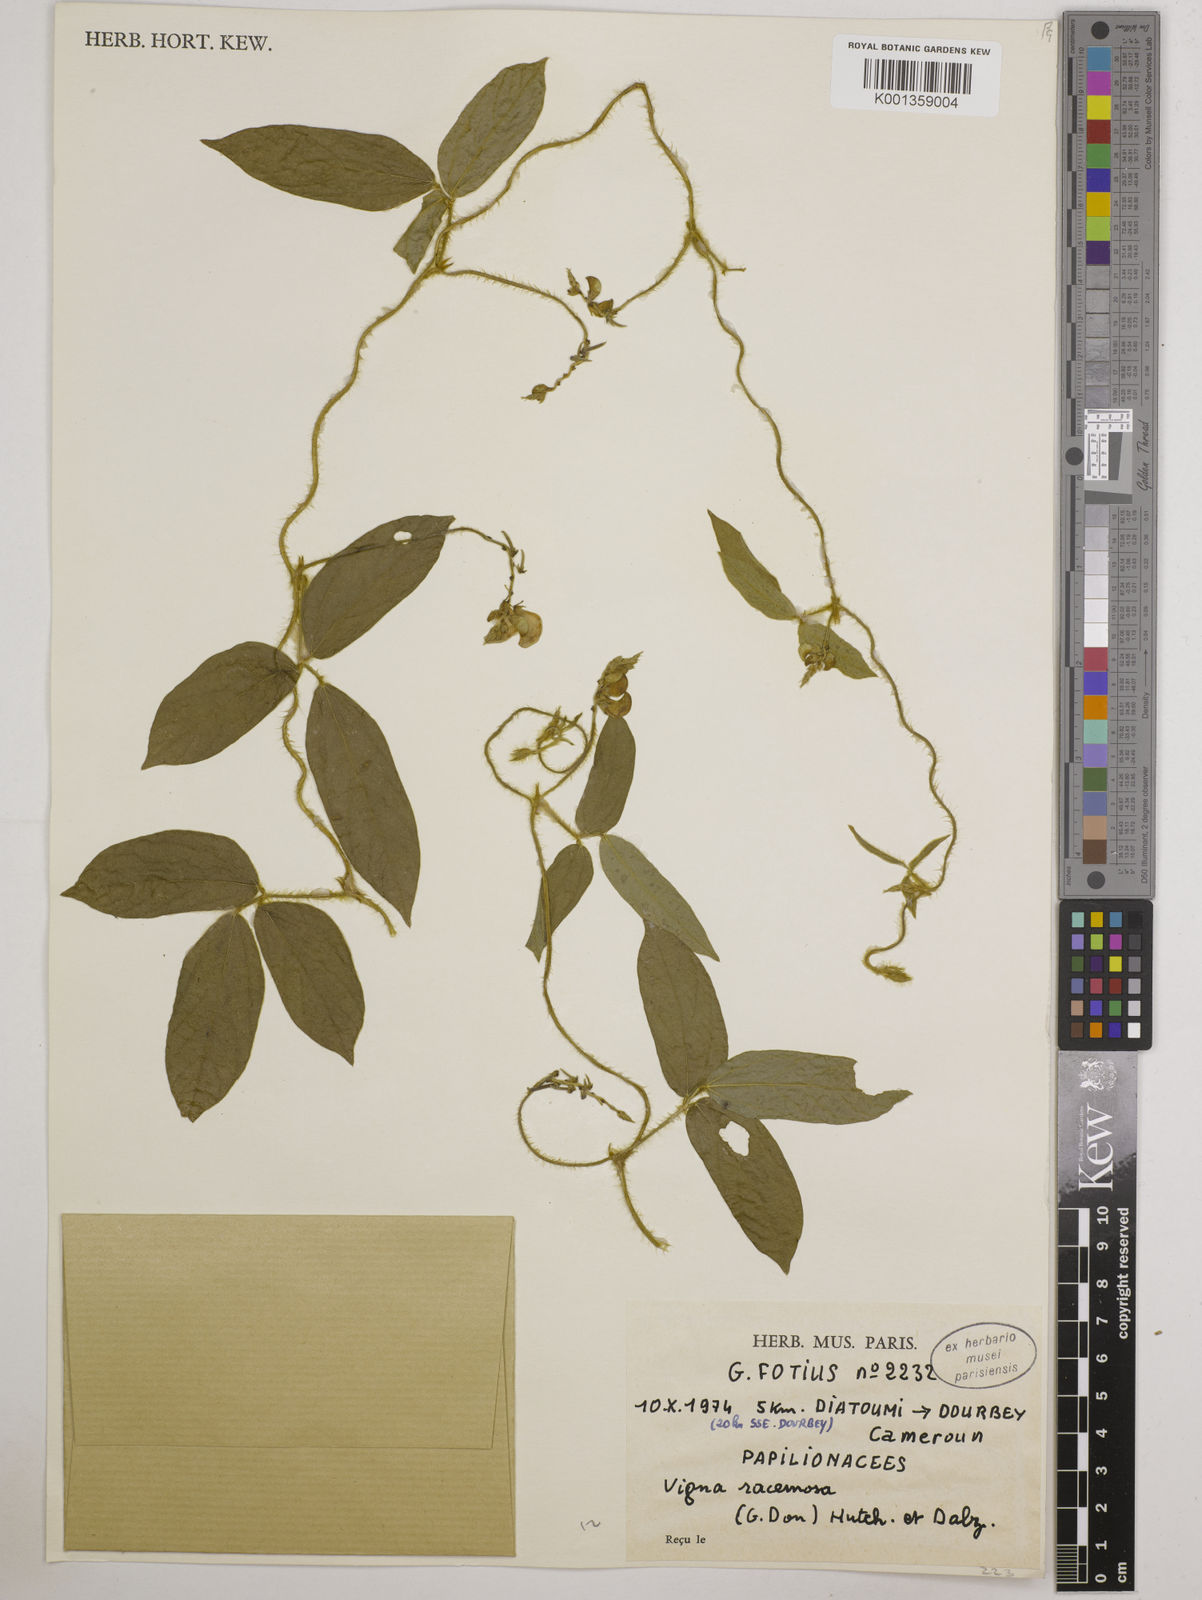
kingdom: Plantae
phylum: Tracheophyta
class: Magnoliopsida
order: Fabales
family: Fabaceae
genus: Vigna
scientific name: Vigna racemosa
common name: Beans not eaten
